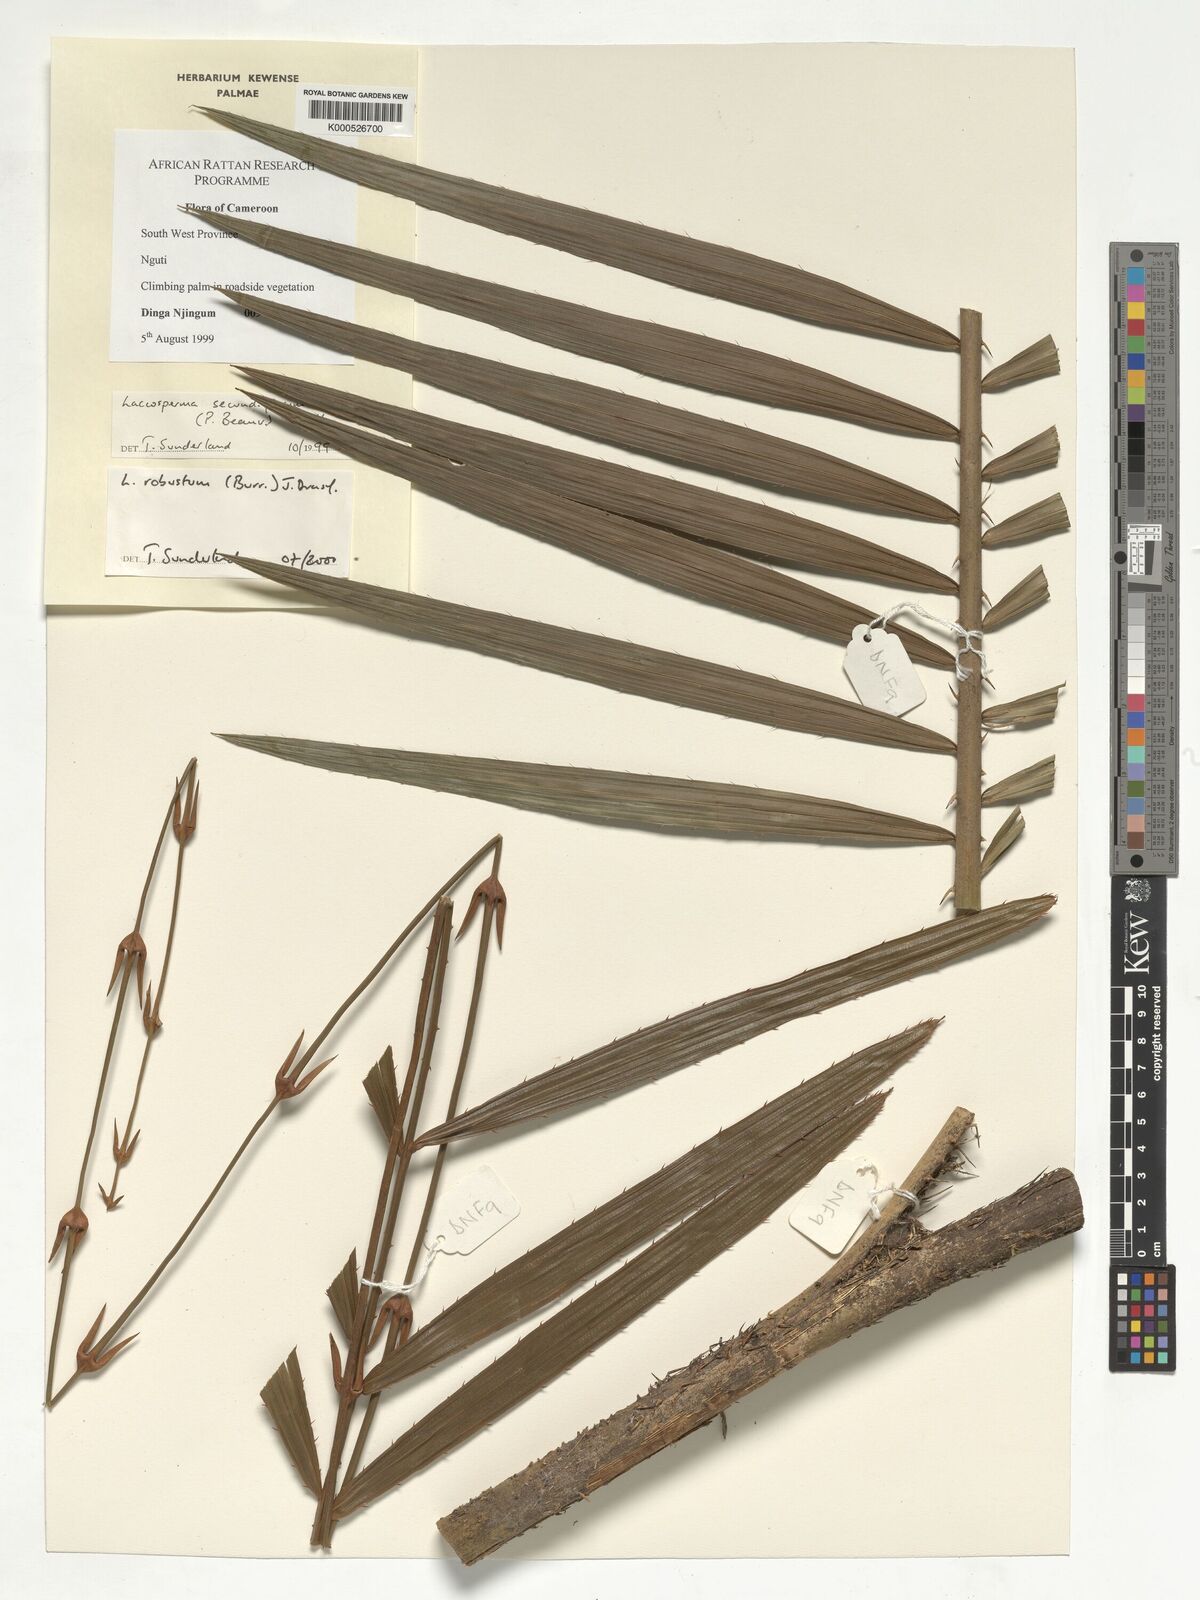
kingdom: Plantae
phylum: Tracheophyta
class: Liliopsida
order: Arecales
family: Arecaceae
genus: Laccosperma
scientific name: Laccosperma robustum
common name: Rattan
